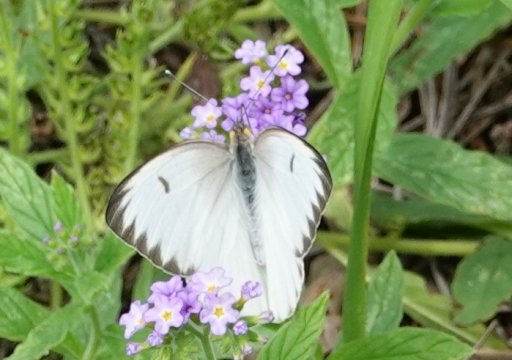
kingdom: Animalia
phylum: Arthropoda
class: Insecta
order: Lepidoptera
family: Pieridae
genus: Ascia
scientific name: Ascia monuste
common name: Great Southern White
